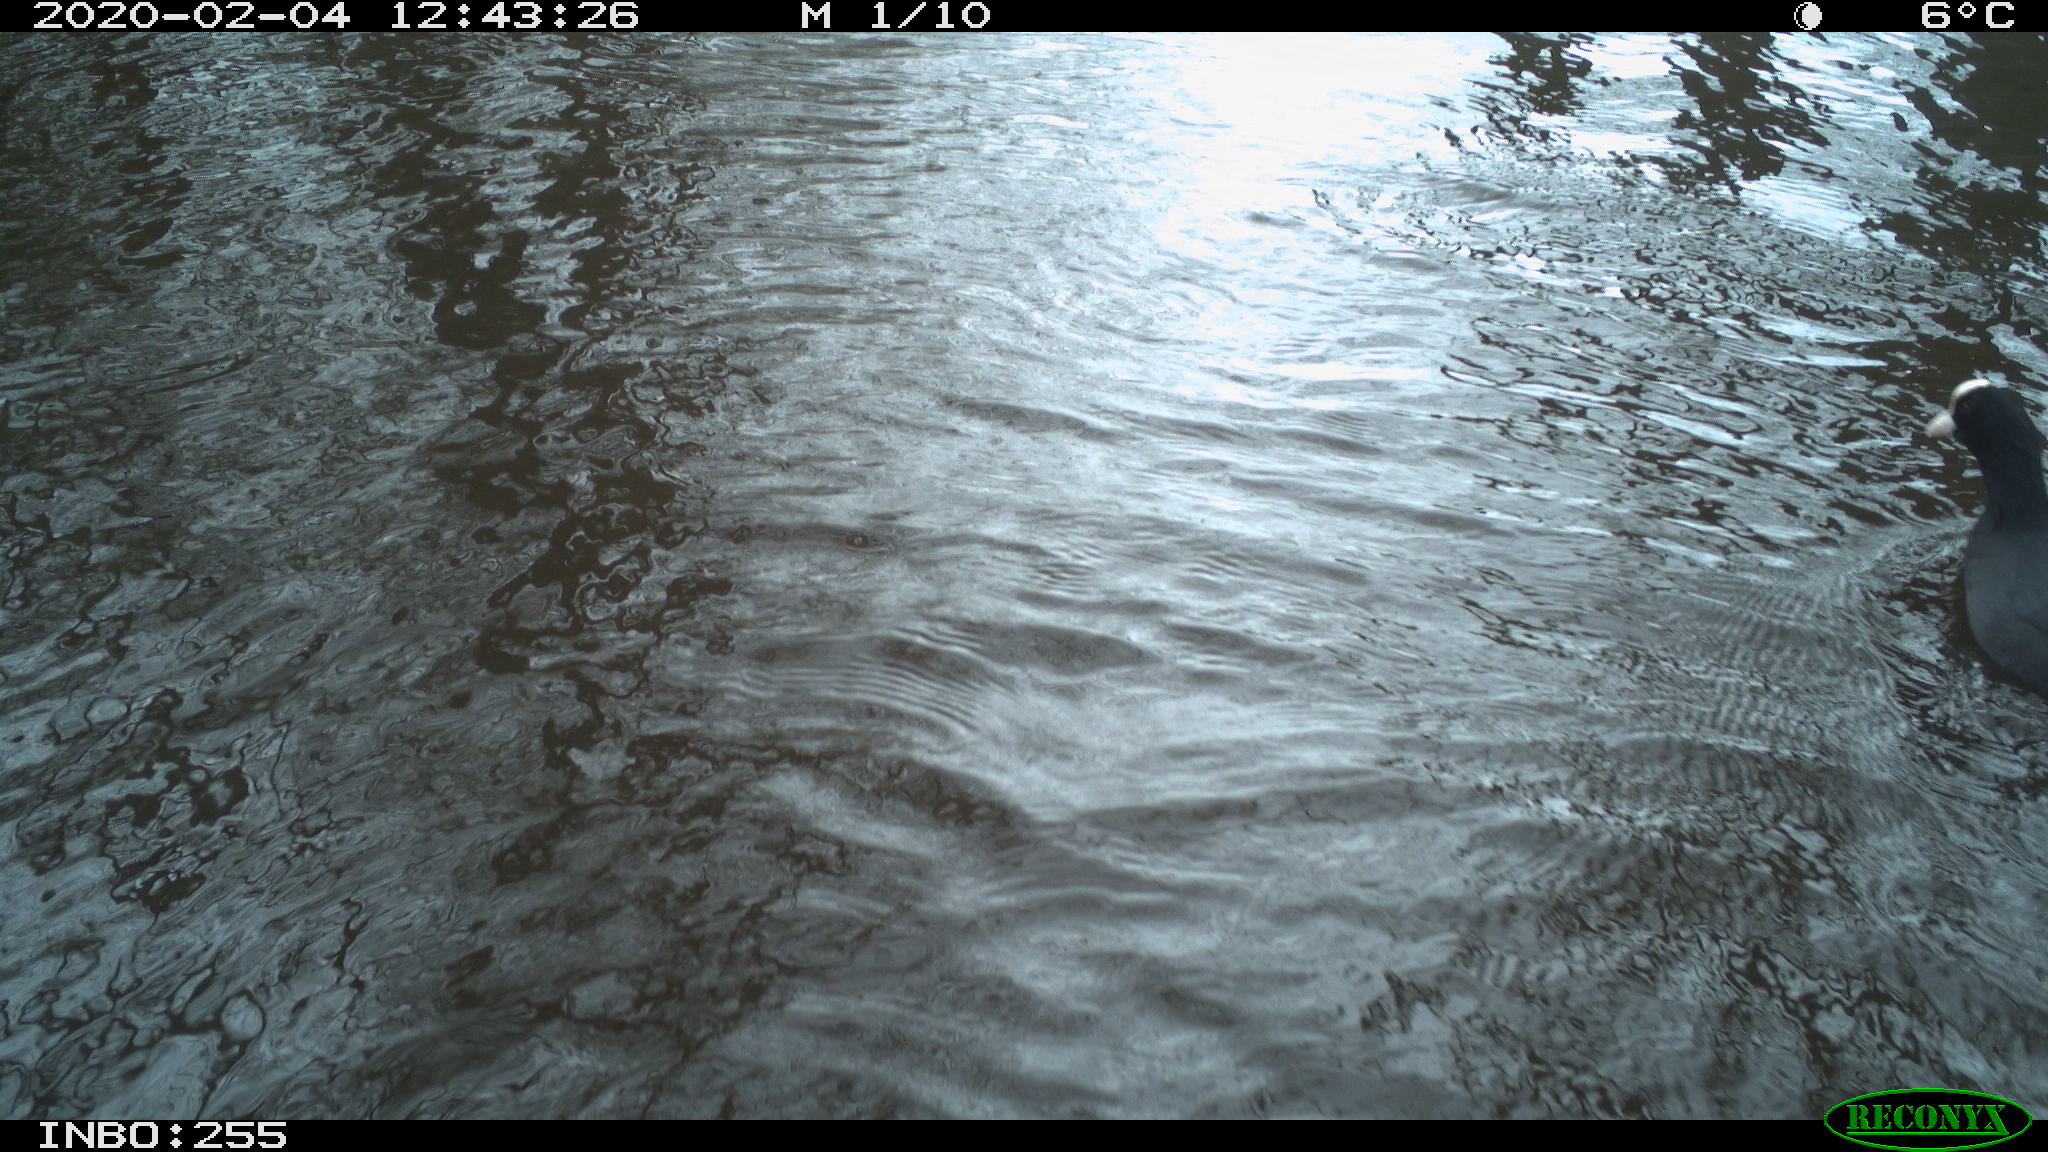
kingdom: Animalia
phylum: Chordata
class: Aves
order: Gruiformes
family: Rallidae
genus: Fulica
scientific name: Fulica atra
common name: Eurasian coot
